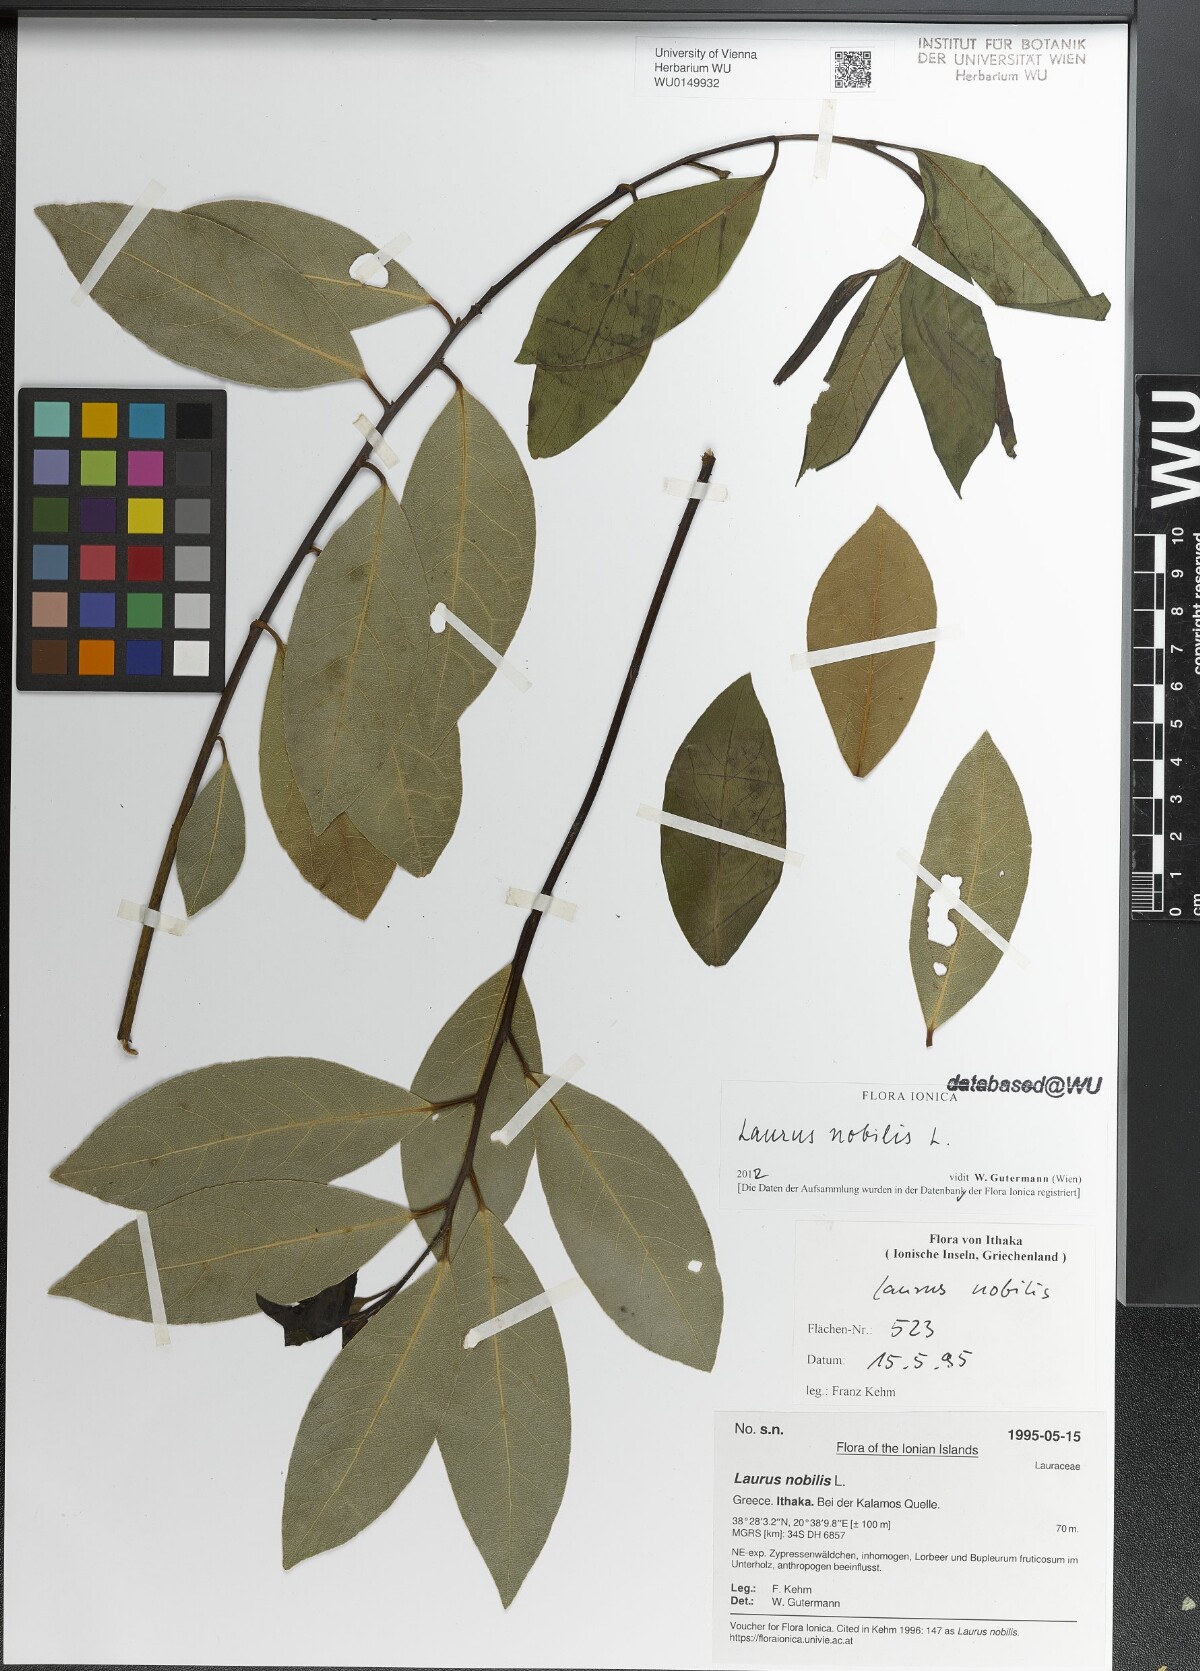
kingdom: Plantae
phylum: Tracheophyta
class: Magnoliopsida
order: Laurales
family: Lauraceae
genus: Laurus
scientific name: Laurus nobilis
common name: Bay
